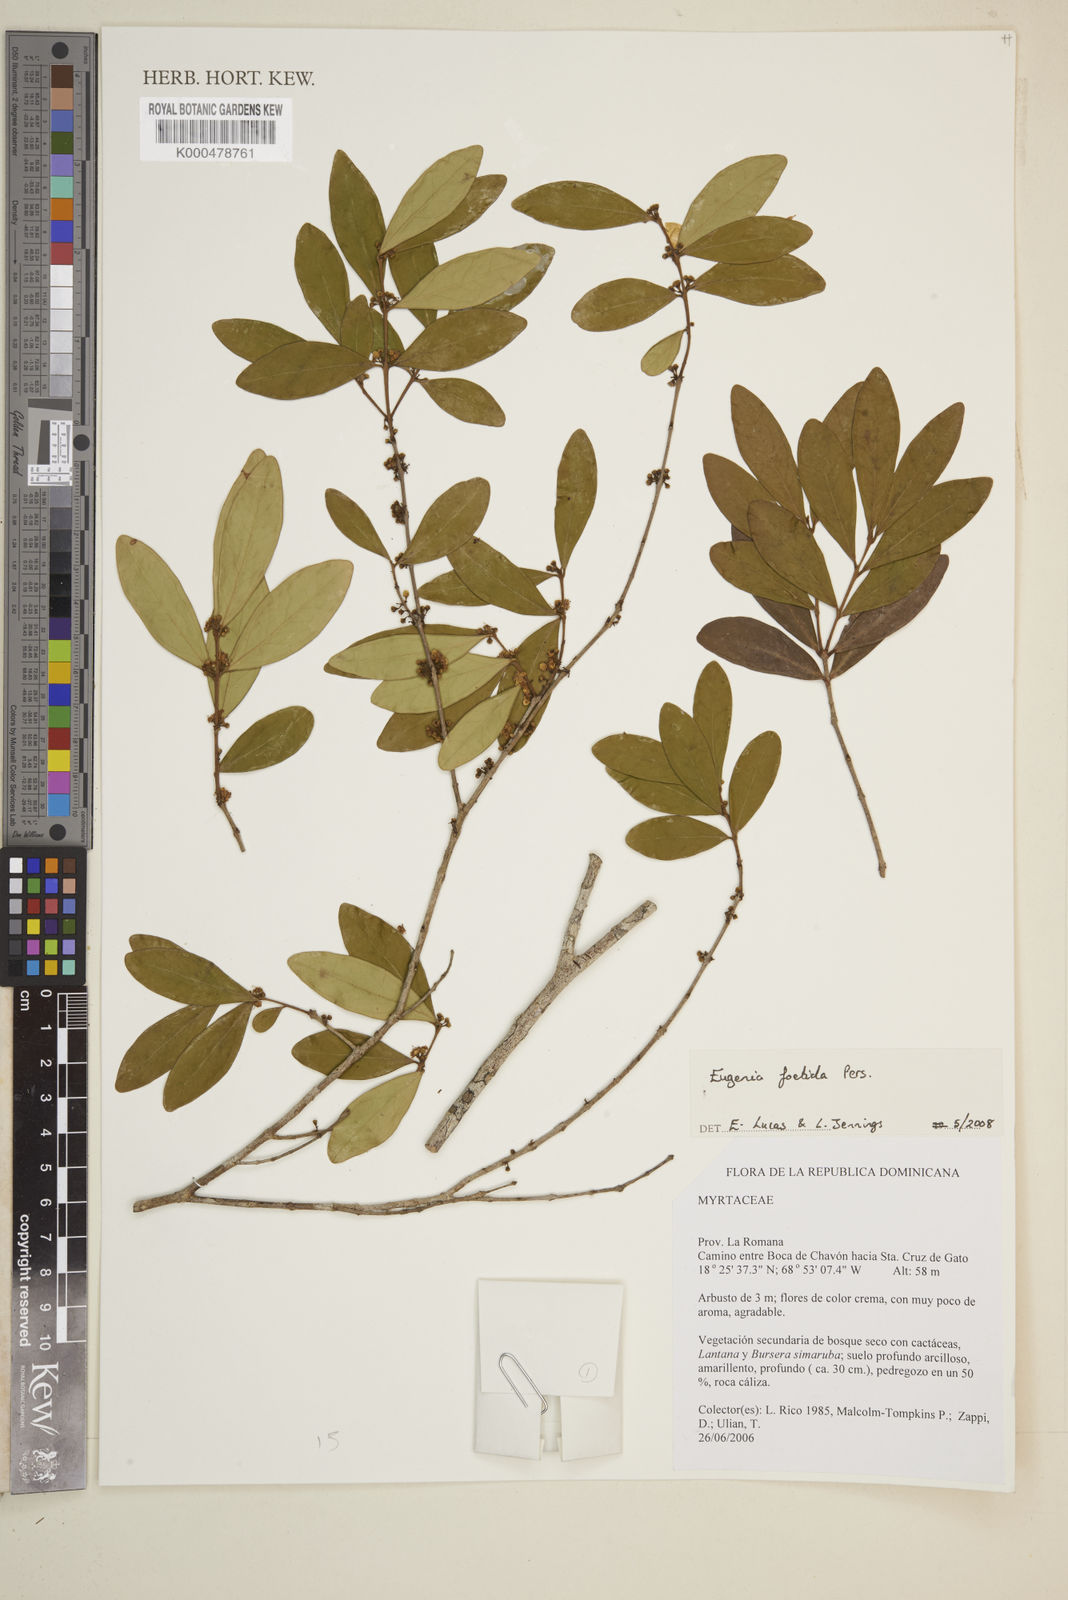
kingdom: Plantae
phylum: Tracheophyta
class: Magnoliopsida
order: Myrtales
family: Myrtaceae
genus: Eugenia
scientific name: Eugenia foetida
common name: White wattling
